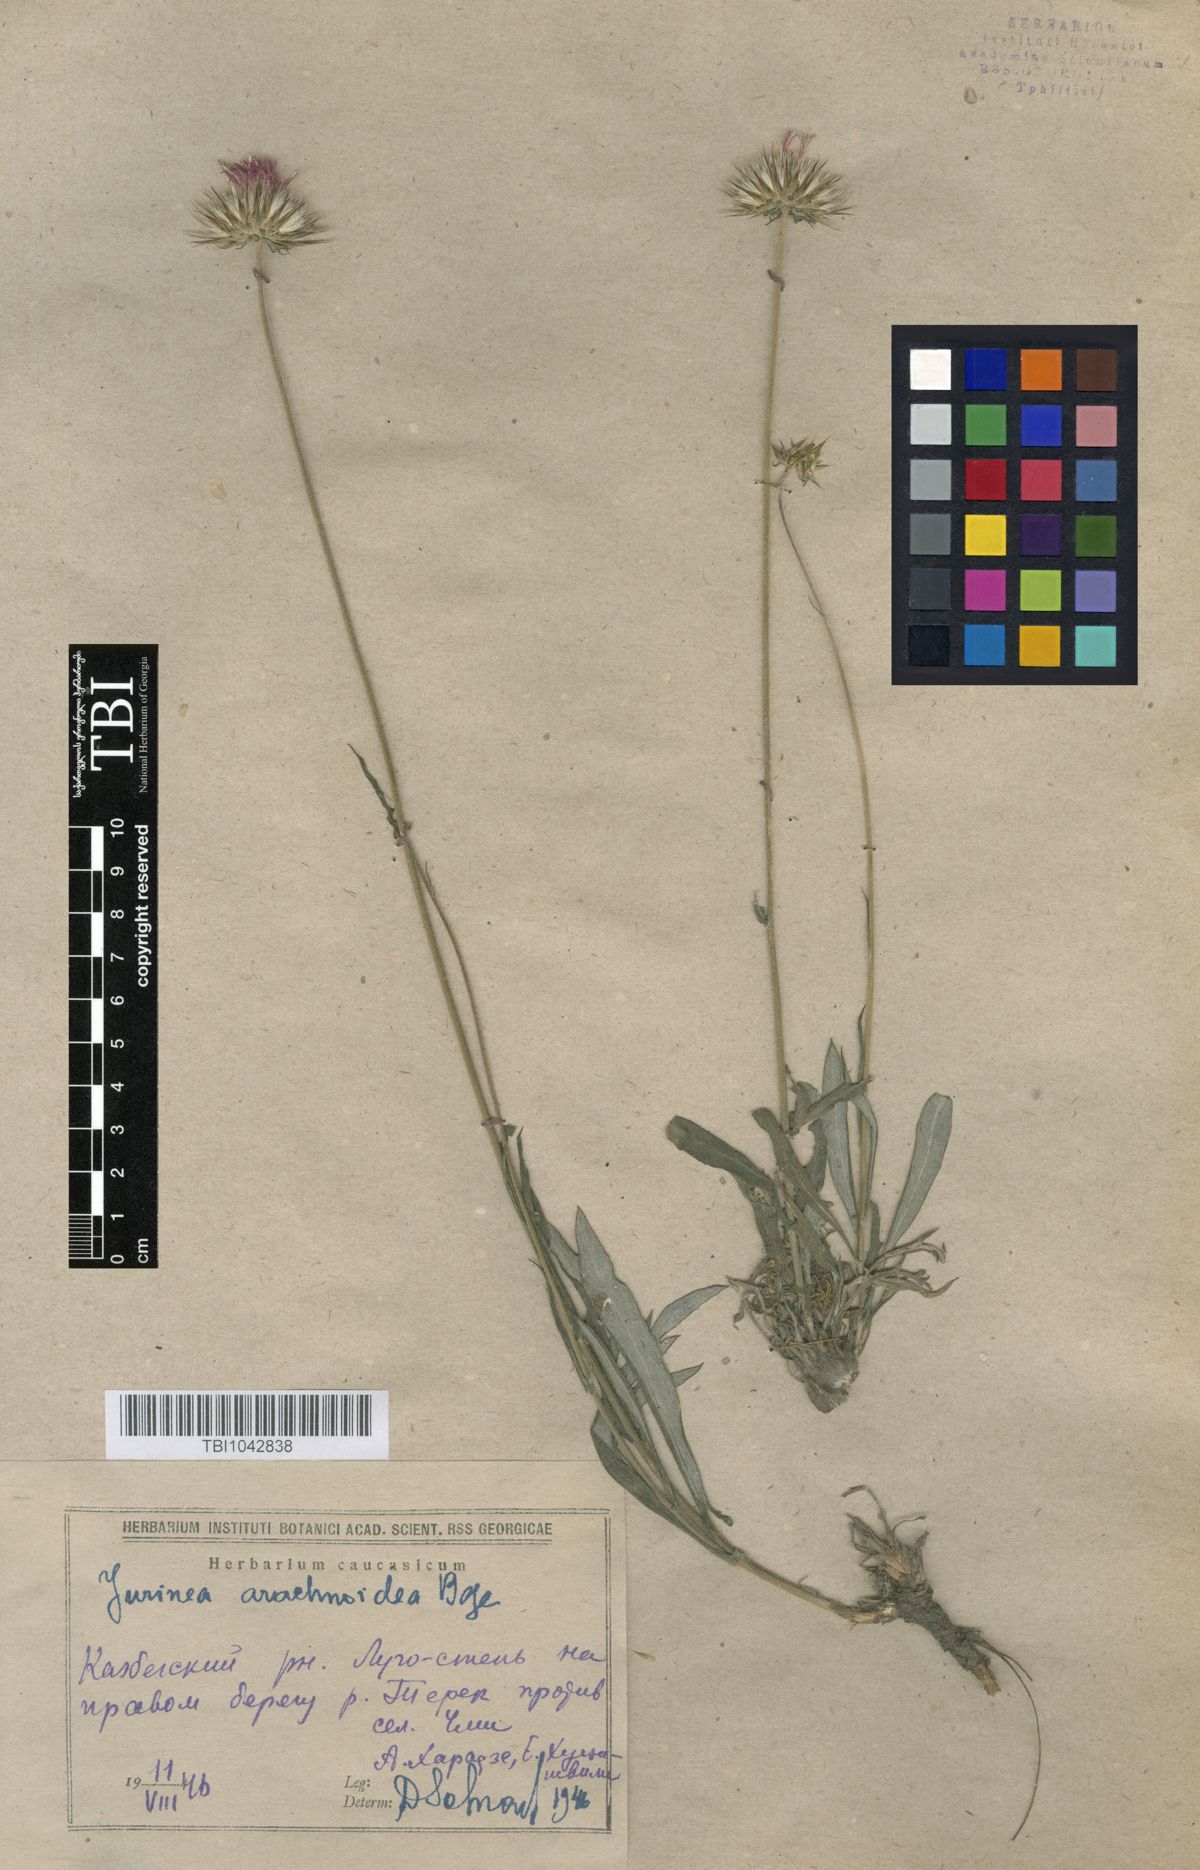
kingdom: Plantae
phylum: Tracheophyta
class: Magnoliopsida
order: Asterales
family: Asteraceae
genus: Jurinea
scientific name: Jurinea blanda
